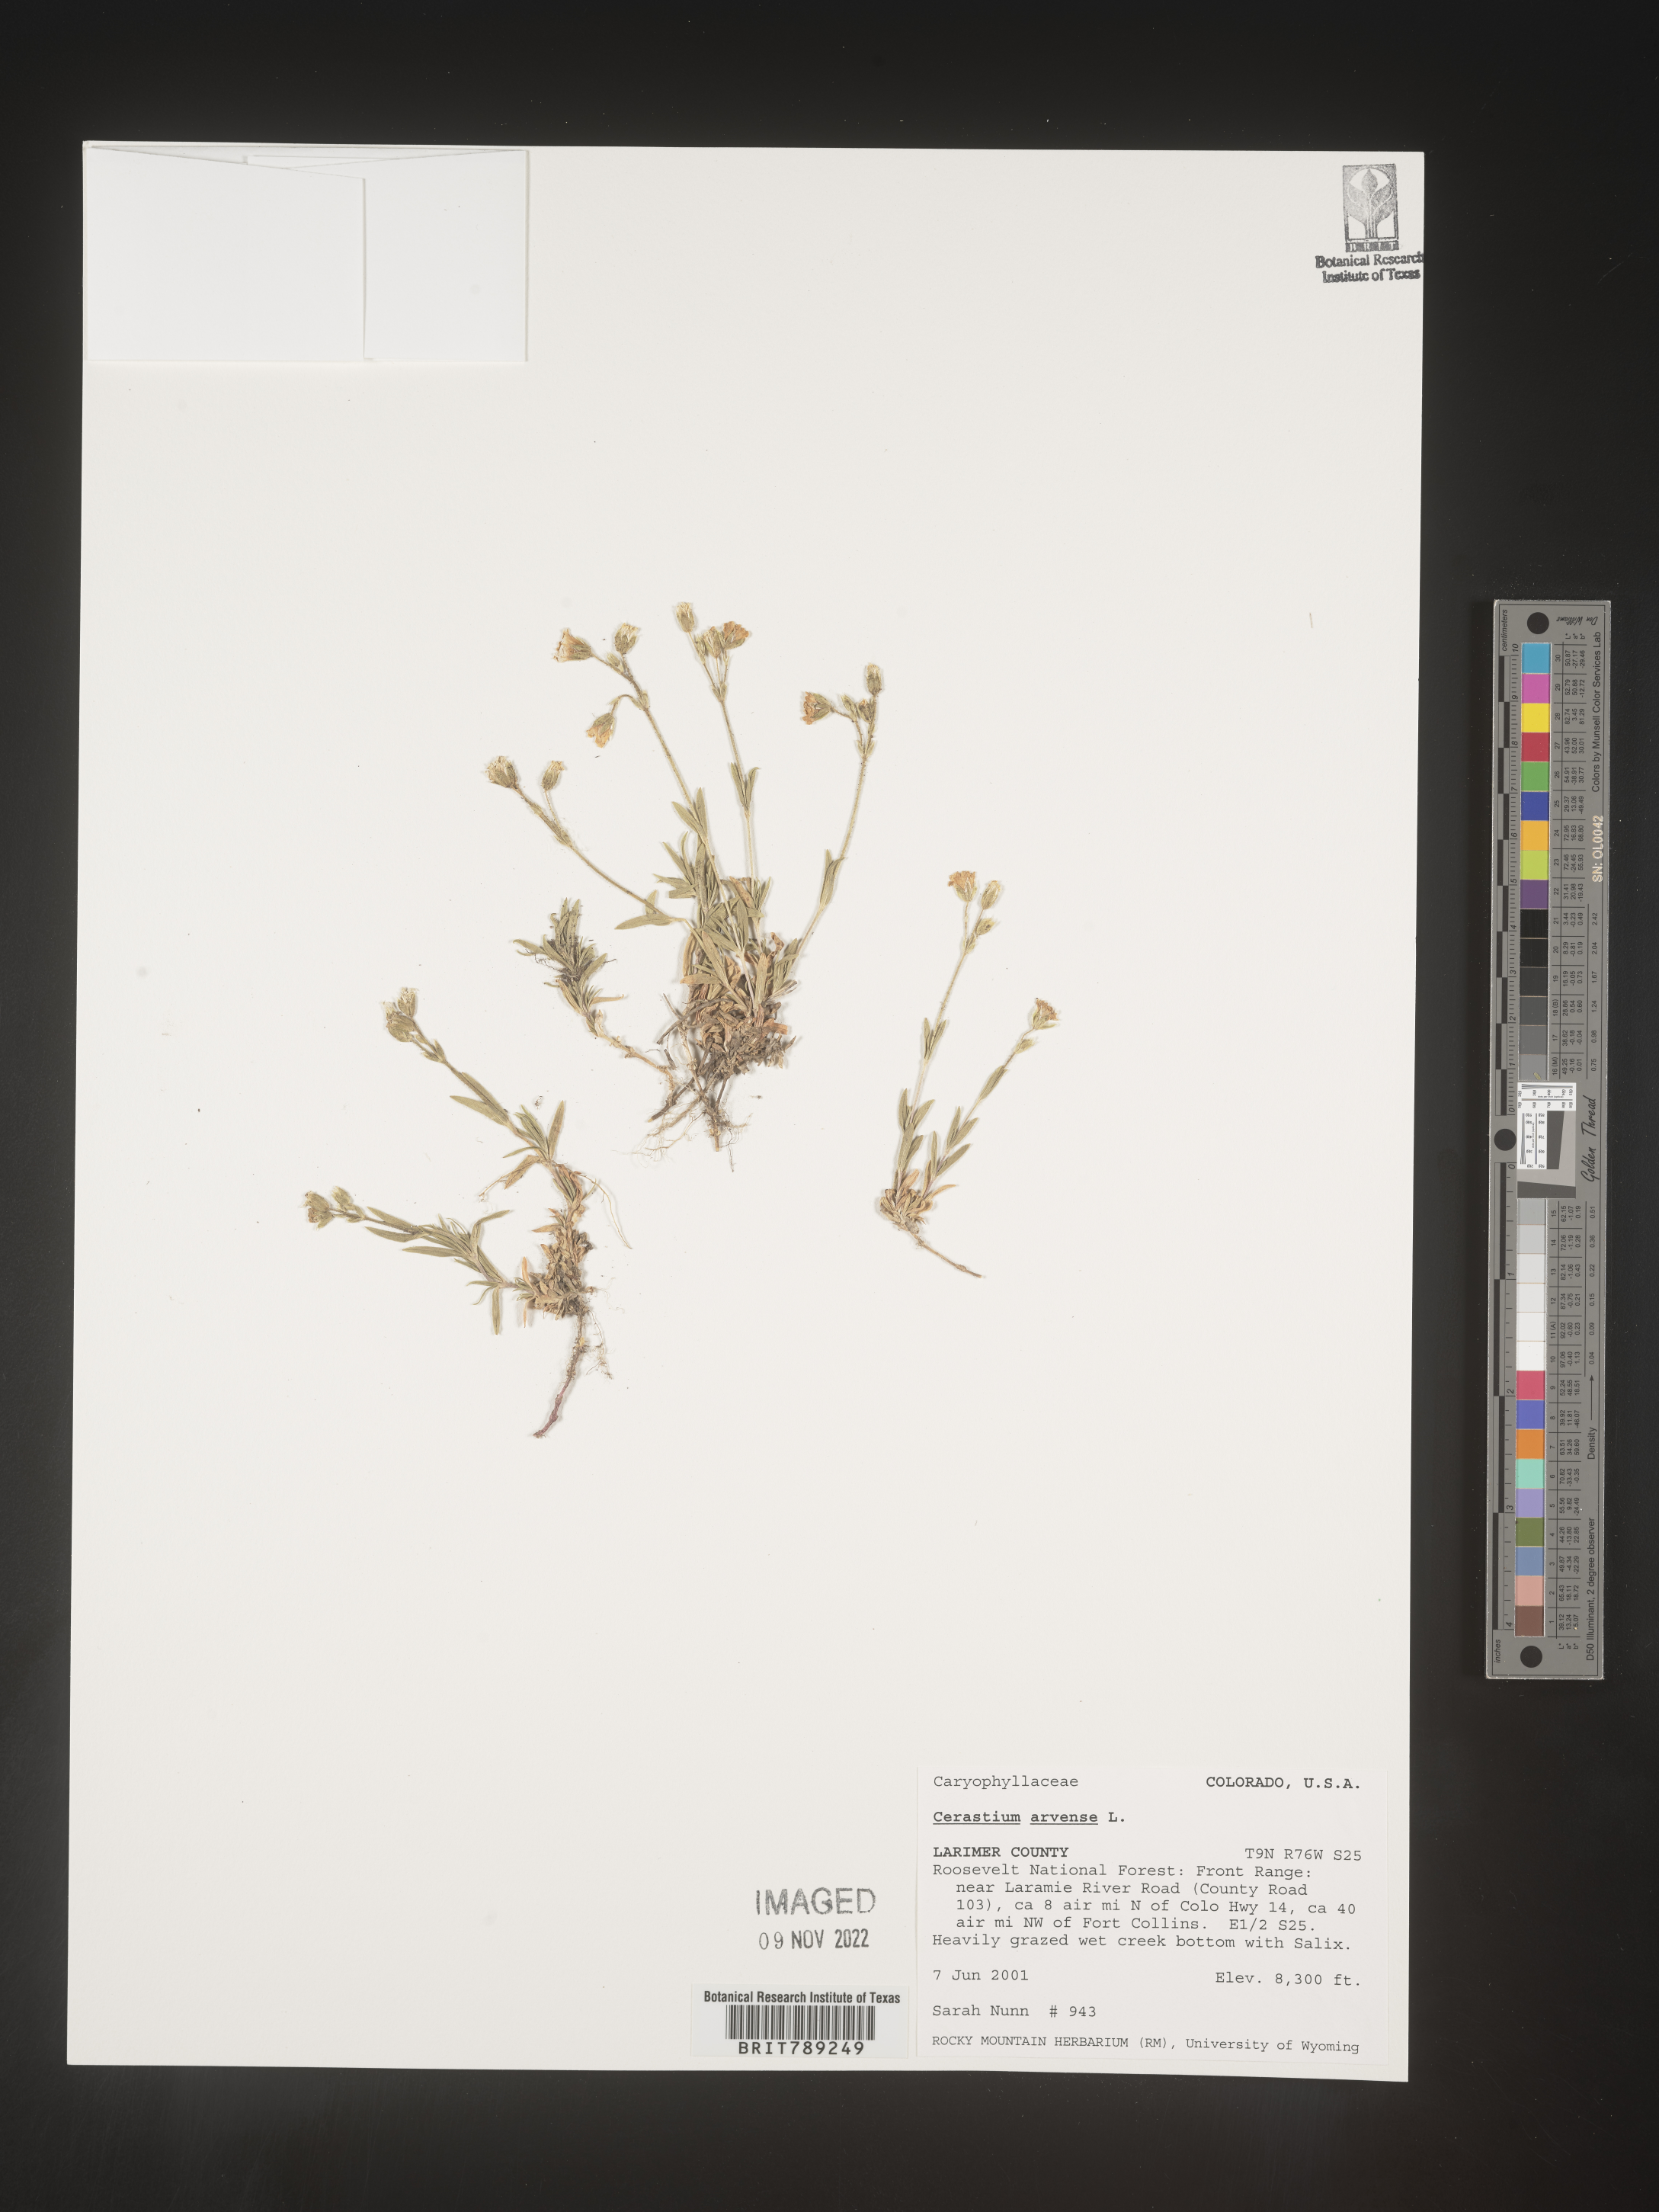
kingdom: Plantae
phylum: Tracheophyta
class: Magnoliopsida
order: Caryophyllales
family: Caryophyllaceae
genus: Cerastium
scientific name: Cerastium arvense
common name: Field mouse-ear
